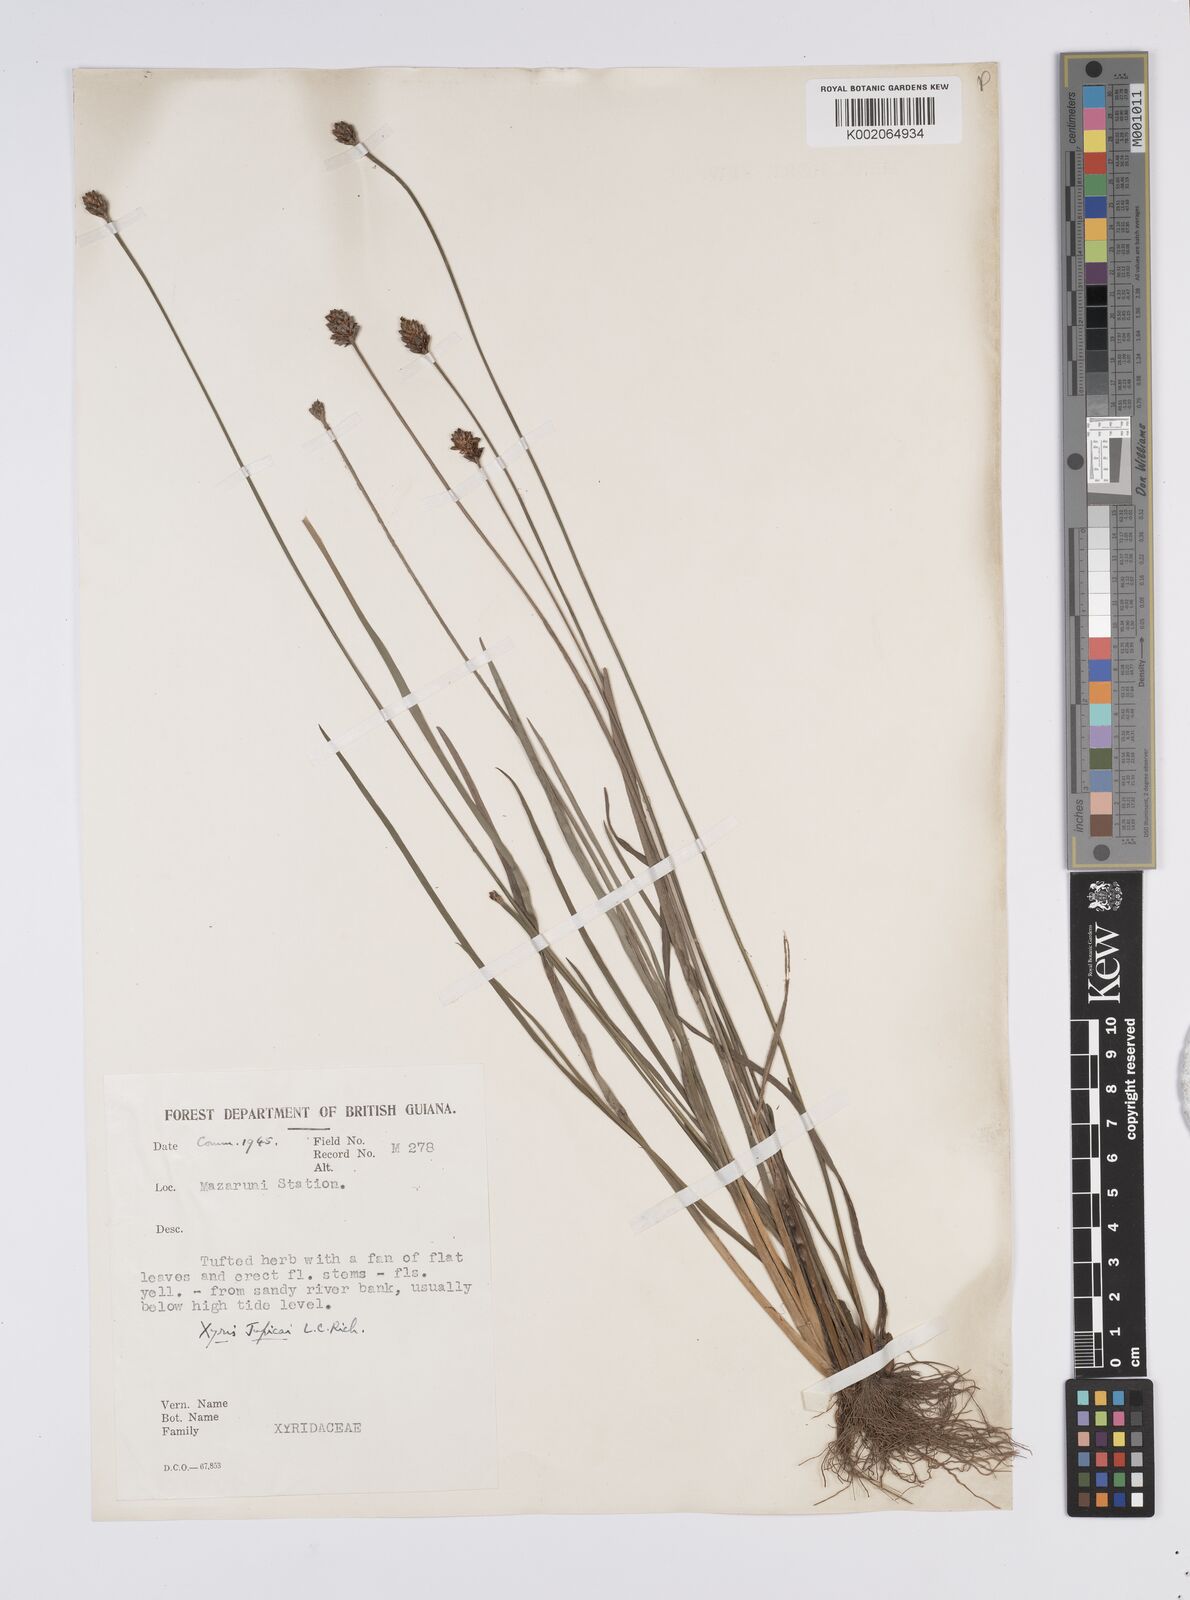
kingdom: Plantae
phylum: Tracheophyta
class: Liliopsida
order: Poales
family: Xyridaceae
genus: Xyris
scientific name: Xyris jupicai
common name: Richard's yelloweyed grass
